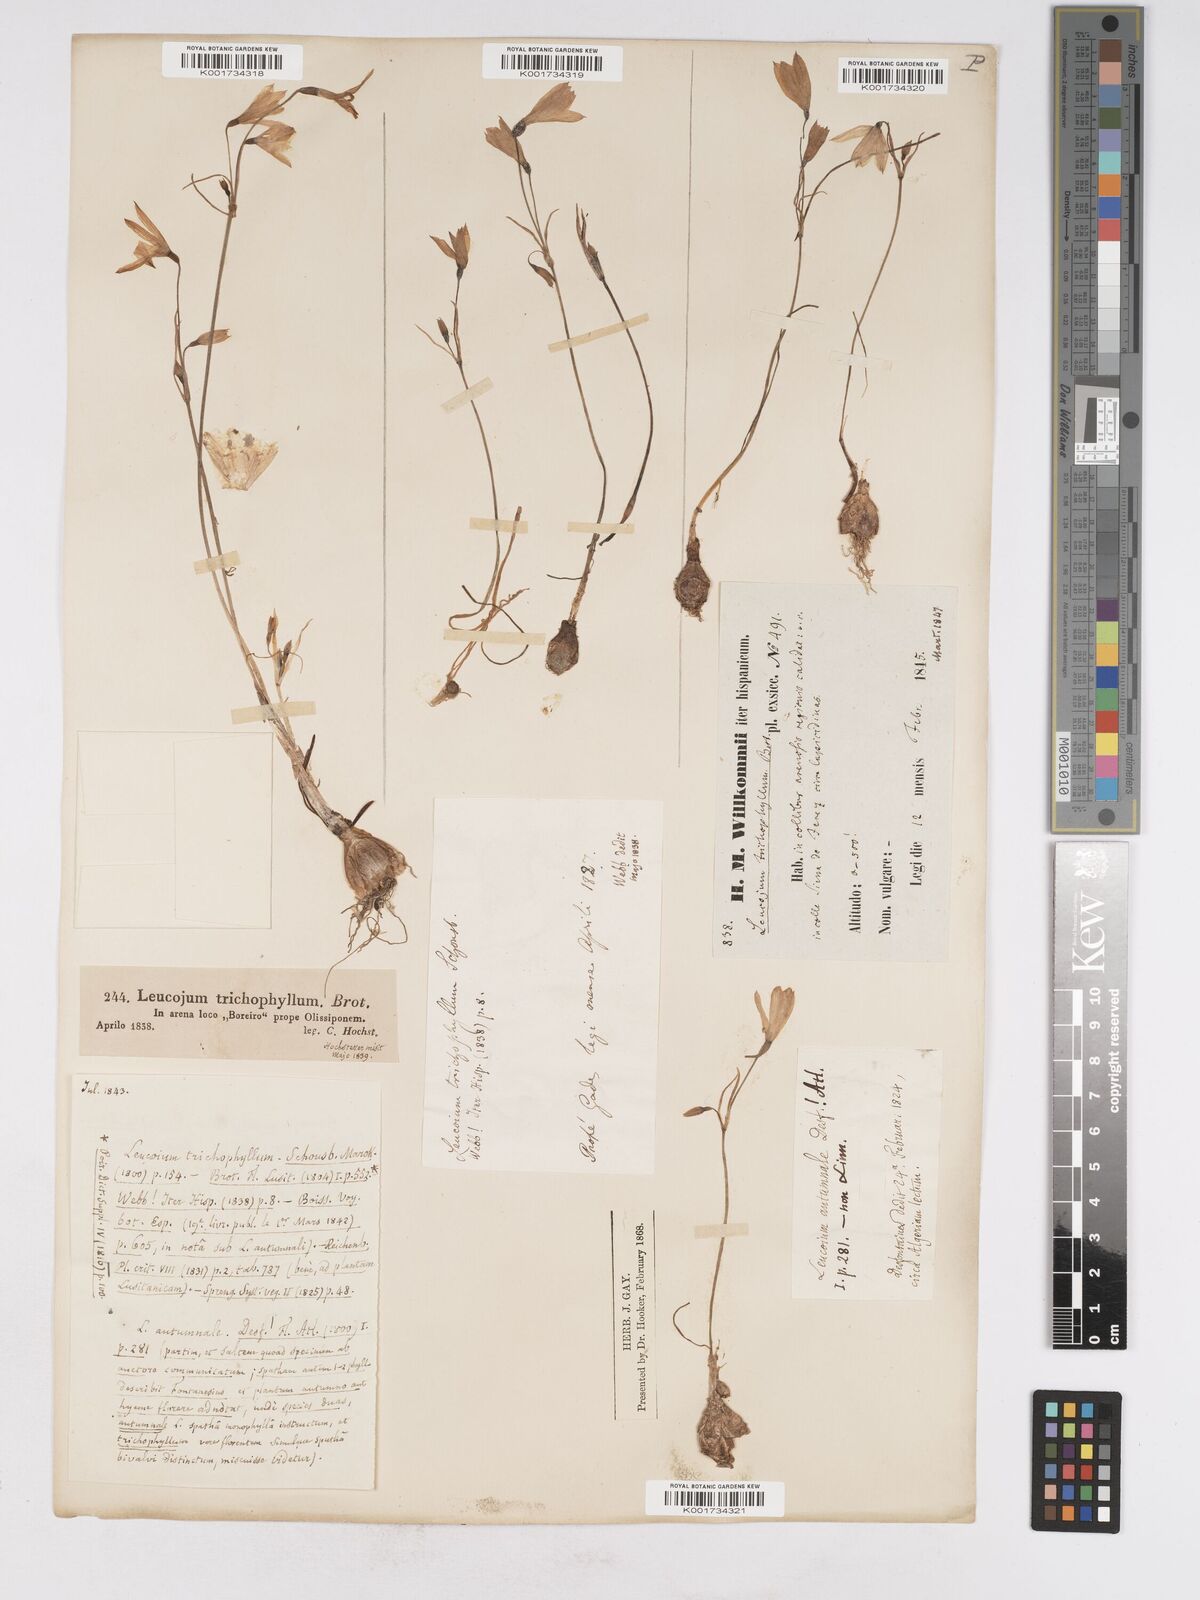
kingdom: Plantae
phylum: Tracheophyta
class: Liliopsida
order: Asparagales
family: Amaryllidaceae
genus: Acis
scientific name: Acis trichophylla
